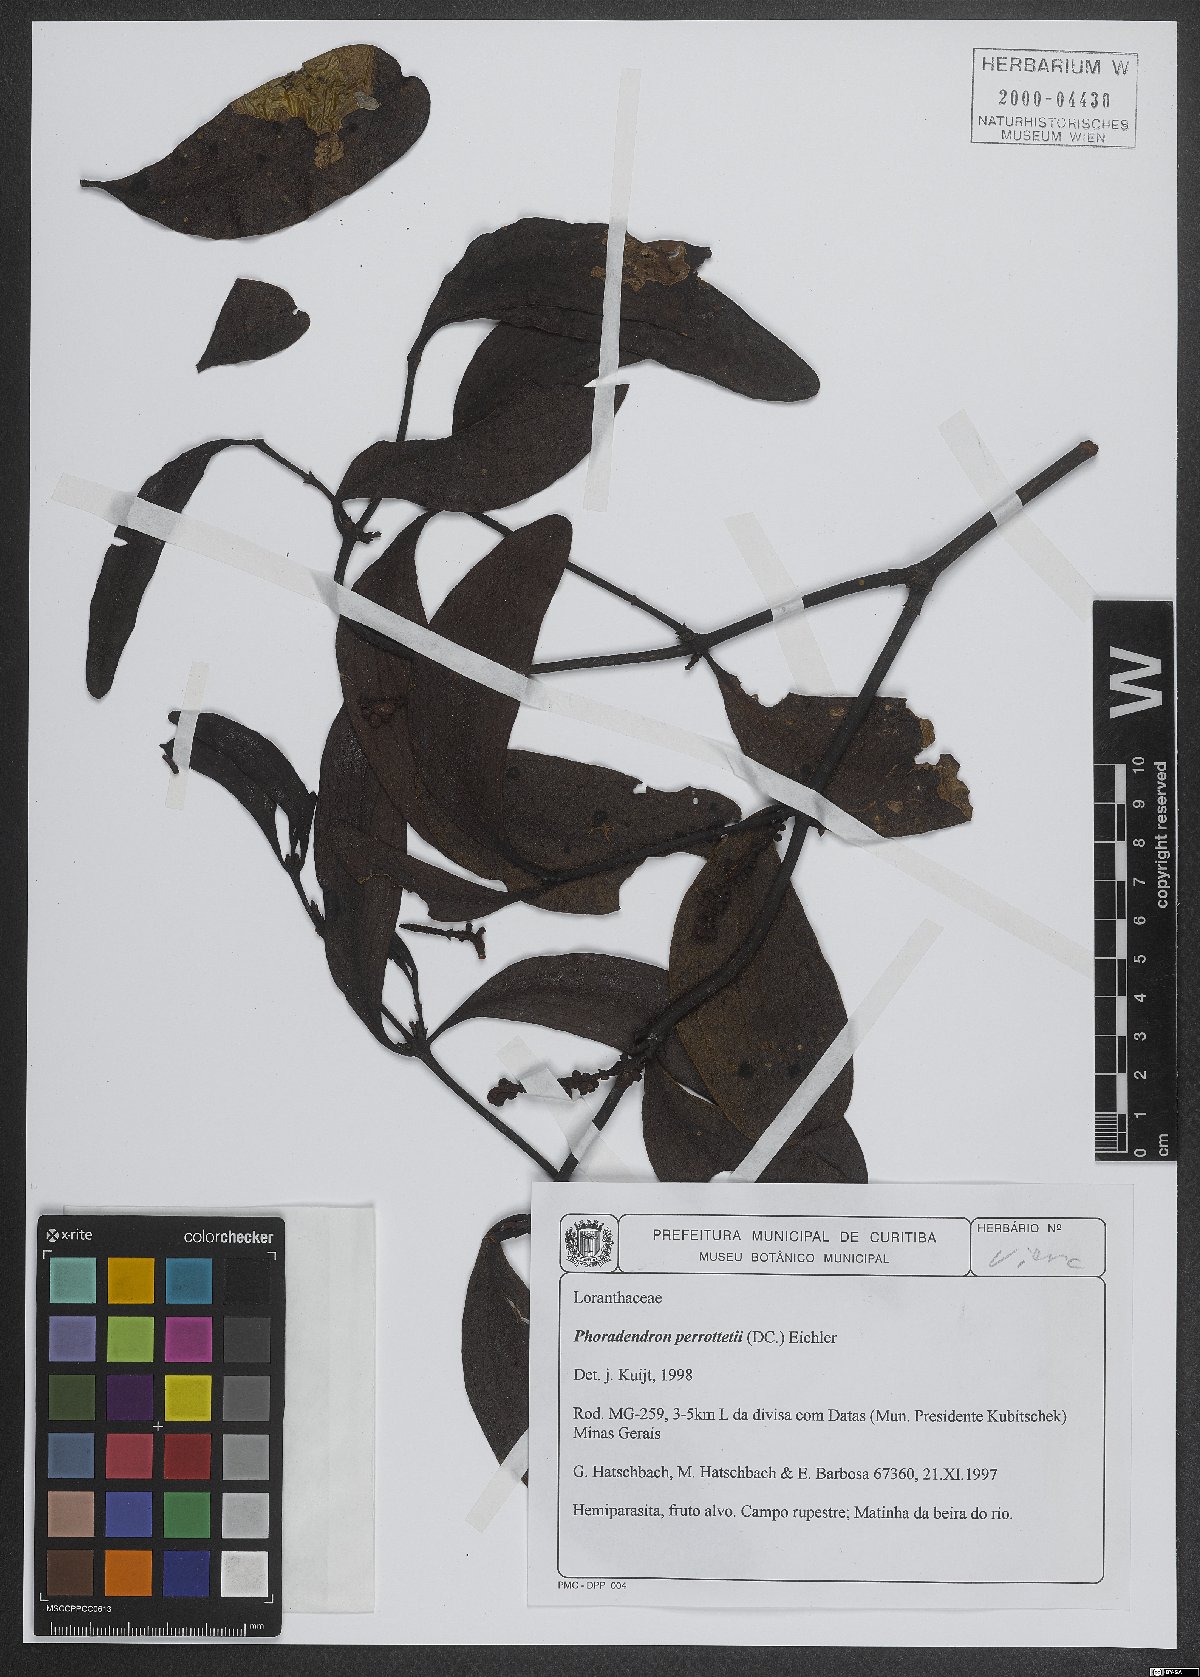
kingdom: Plantae
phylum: Tracheophyta
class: Magnoliopsida
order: Santalales
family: Viscaceae
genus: Phoradendron
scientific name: Phoradendron perrottetii
